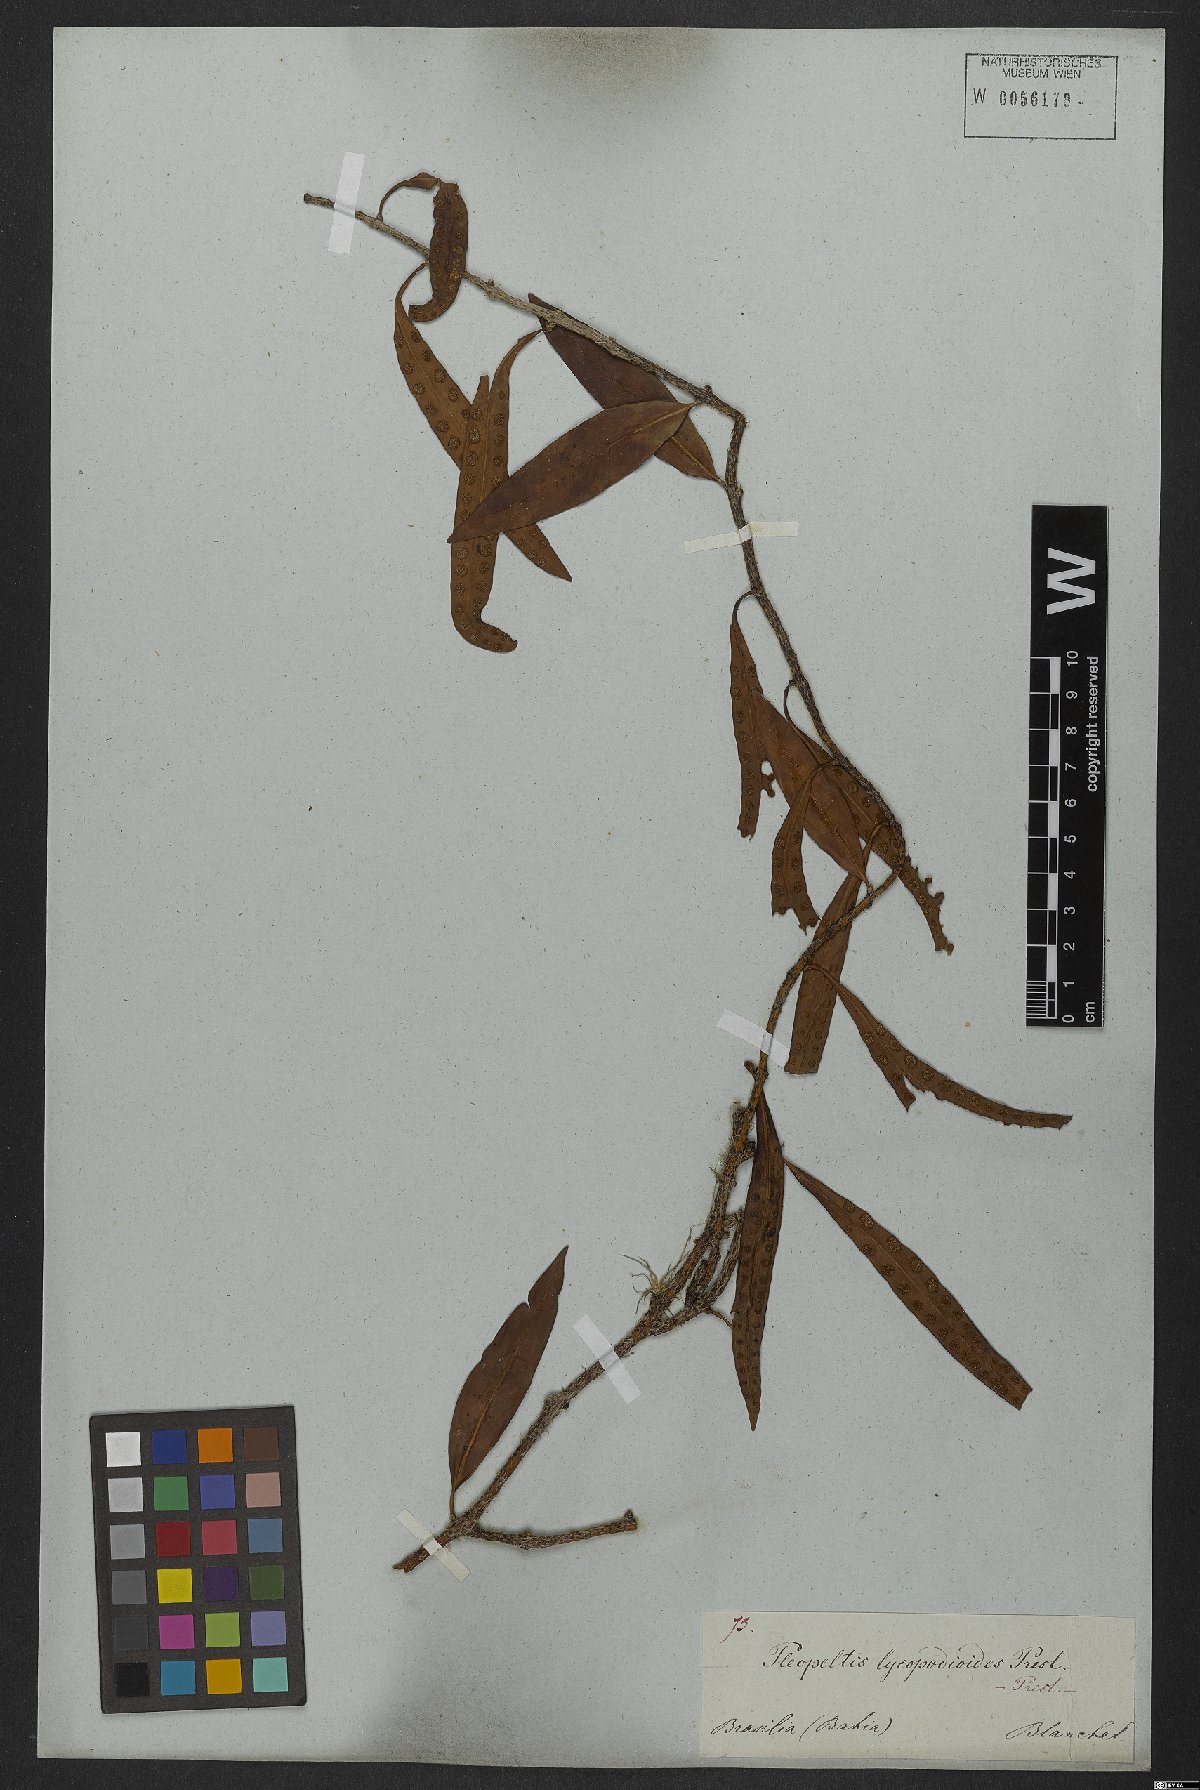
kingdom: Plantae
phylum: Tracheophyta
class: Polypodiopsida
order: Polypodiales
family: Polypodiaceae
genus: Microgramma
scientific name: Microgramma lycopodioides
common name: Bastard catclaw
